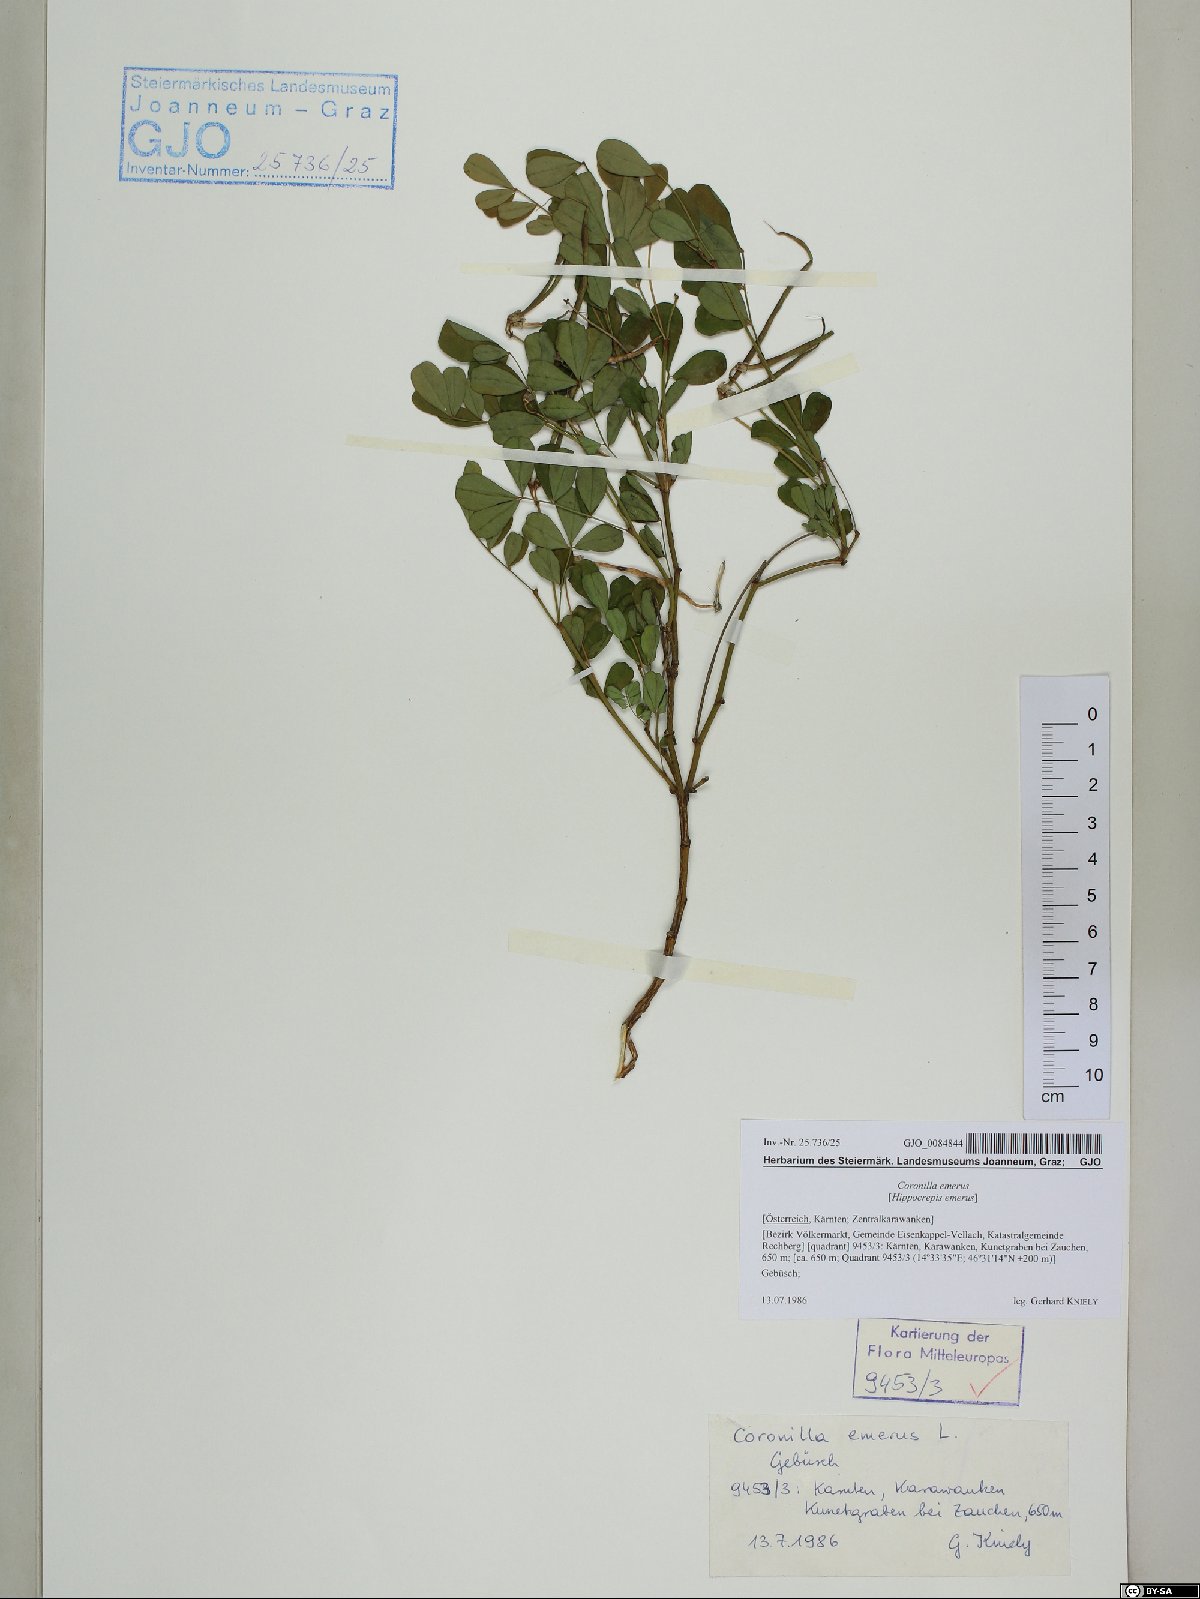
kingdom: Plantae
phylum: Tracheophyta
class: Magnoliopsida
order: Fabales
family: Fabaceae
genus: Hippocrepis
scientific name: Hippocrepis emerus
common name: Scorpion senna
